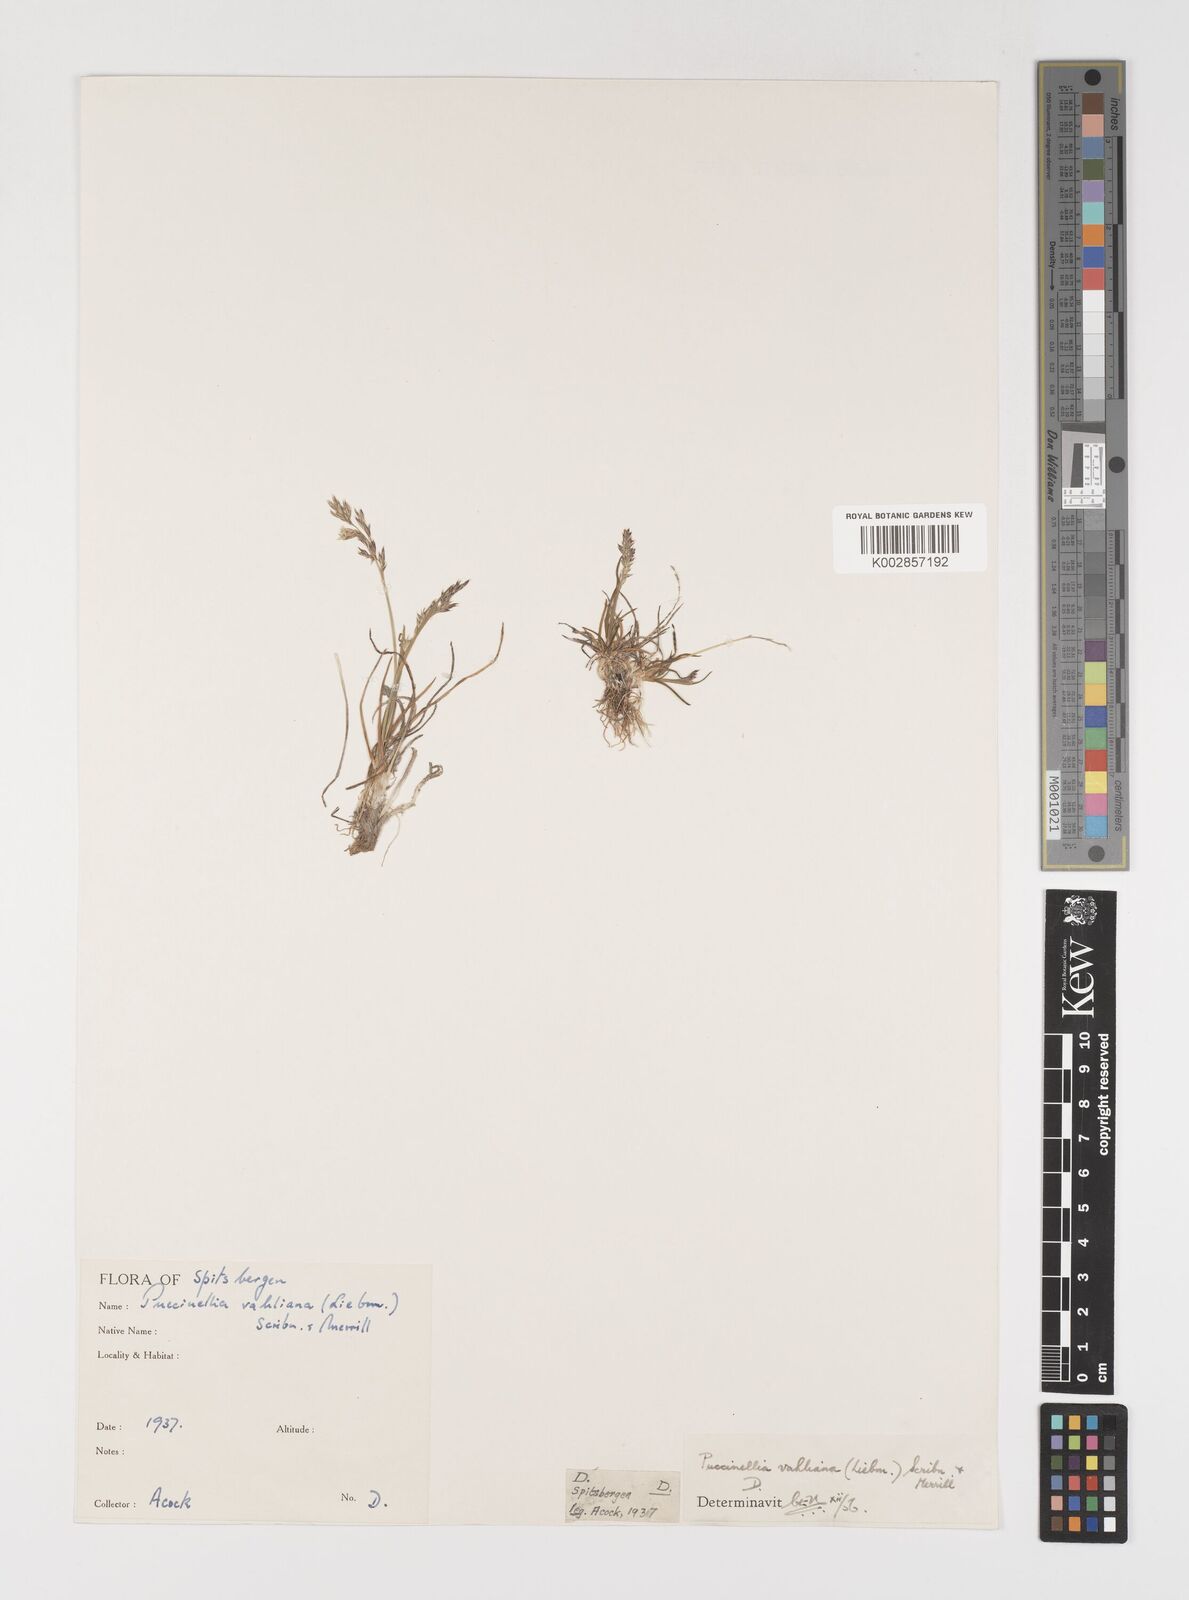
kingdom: Plantae
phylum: Tracheophyta
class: Liliopsida
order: Poales
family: Poaceae
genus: Puccinellia
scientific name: Puccinellia vahliana
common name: Vahl's alkaligrass
